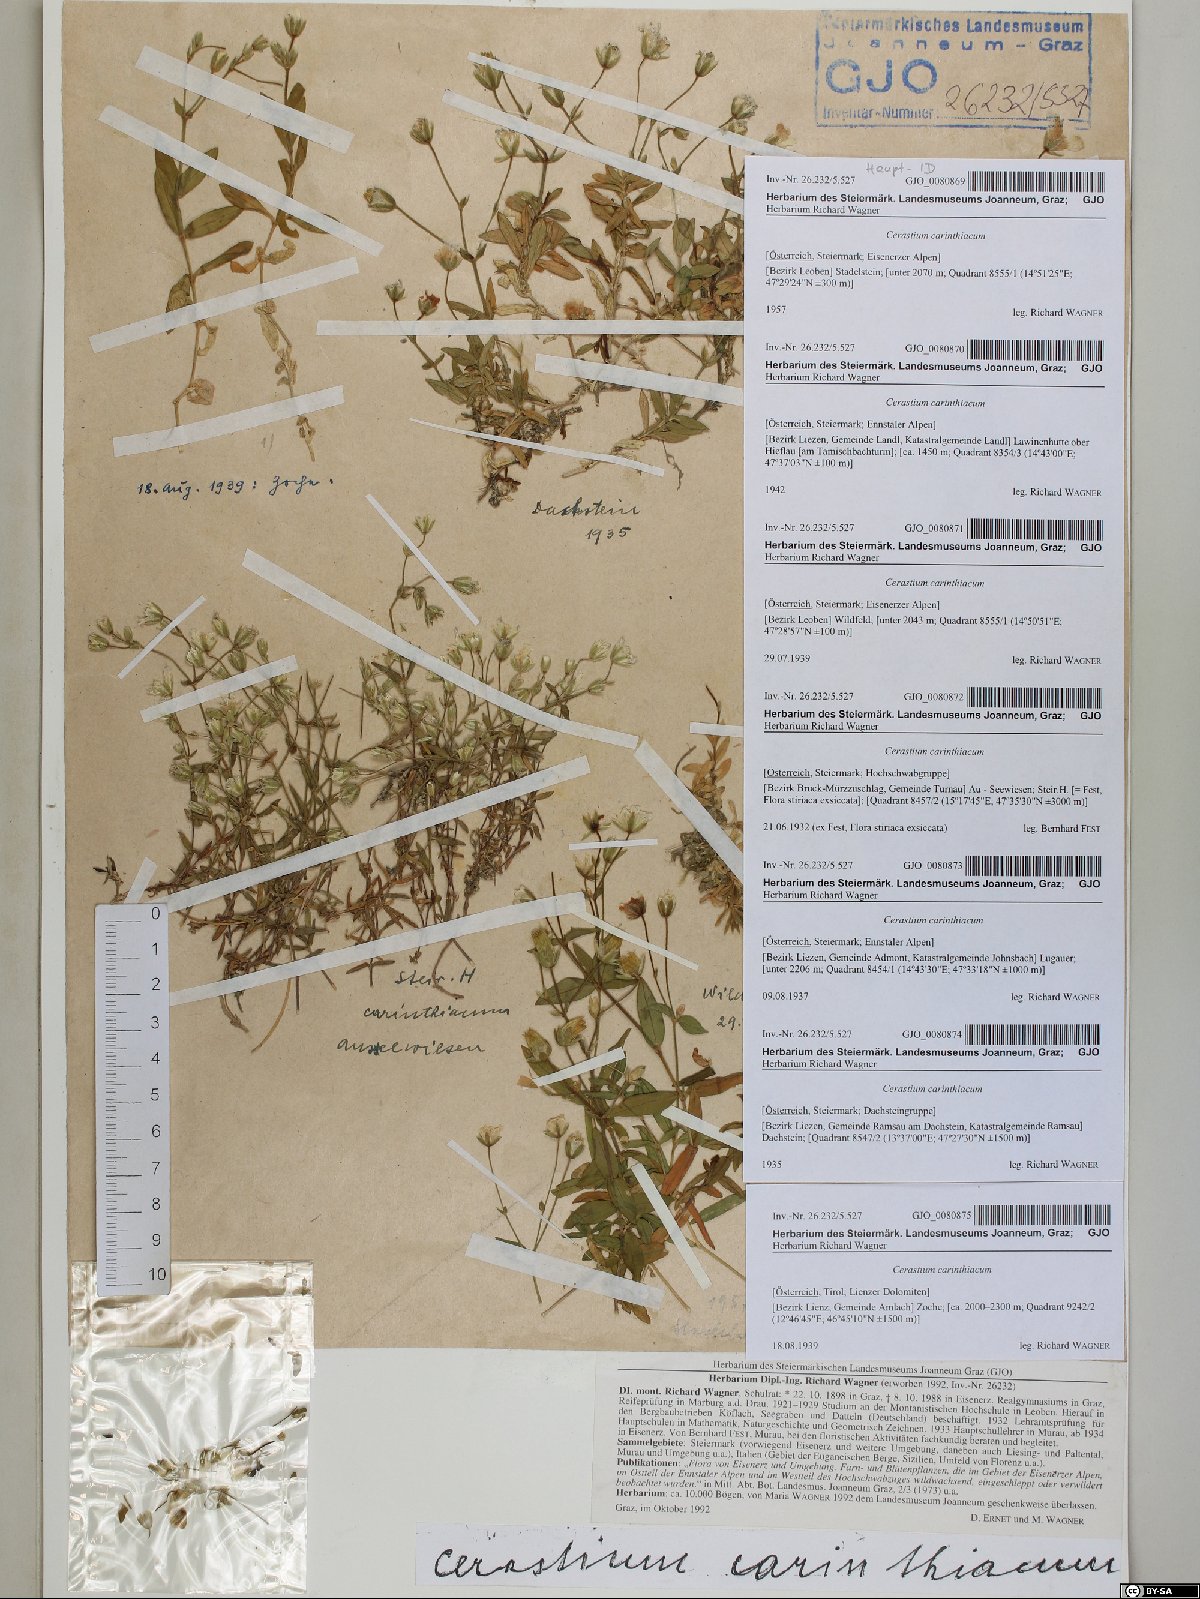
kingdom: Plantae
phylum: Tracheophyta
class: Magnoliopsida
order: Caryophyllales
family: Caryophyllaceae
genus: Cerastium
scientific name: Cerastium carinthiacum
